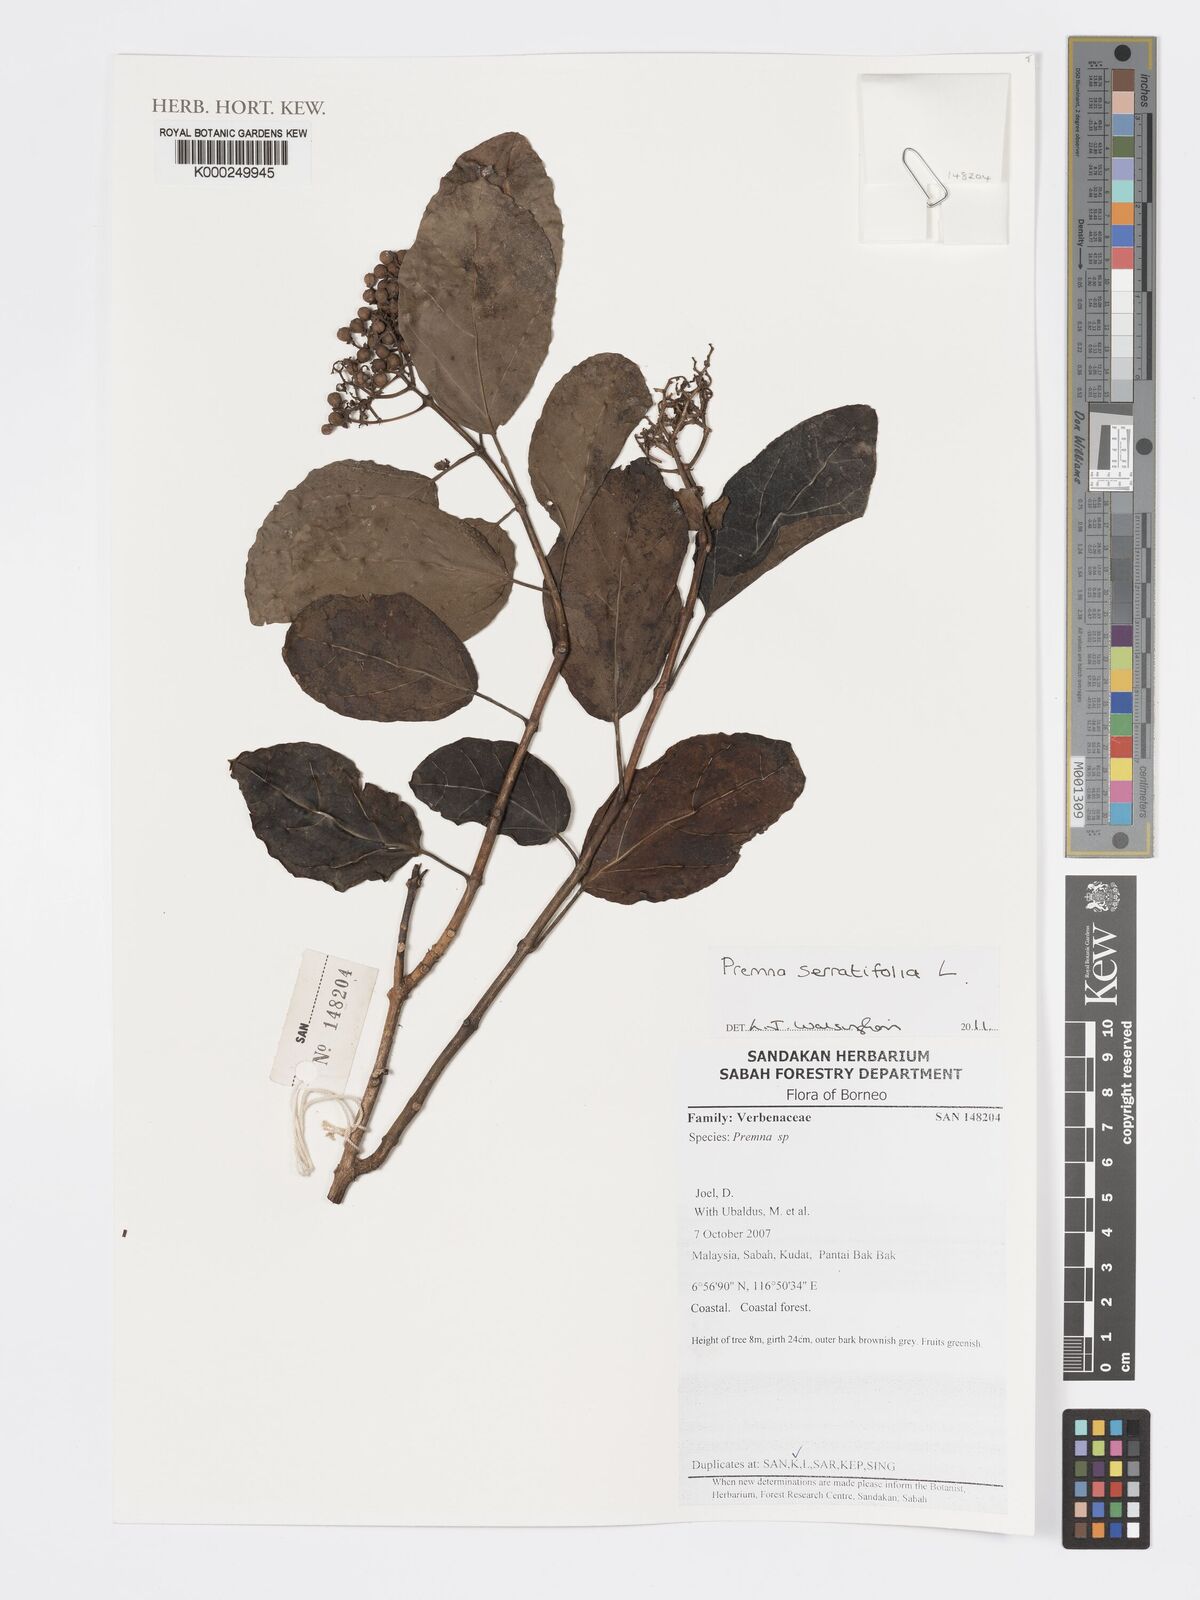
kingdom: Plantae
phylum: Tracheophyta
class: Magnoliopsida
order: Lamiales
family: Lamiaceae
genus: Premna
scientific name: Premna serratifolia
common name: Bastard guelder
